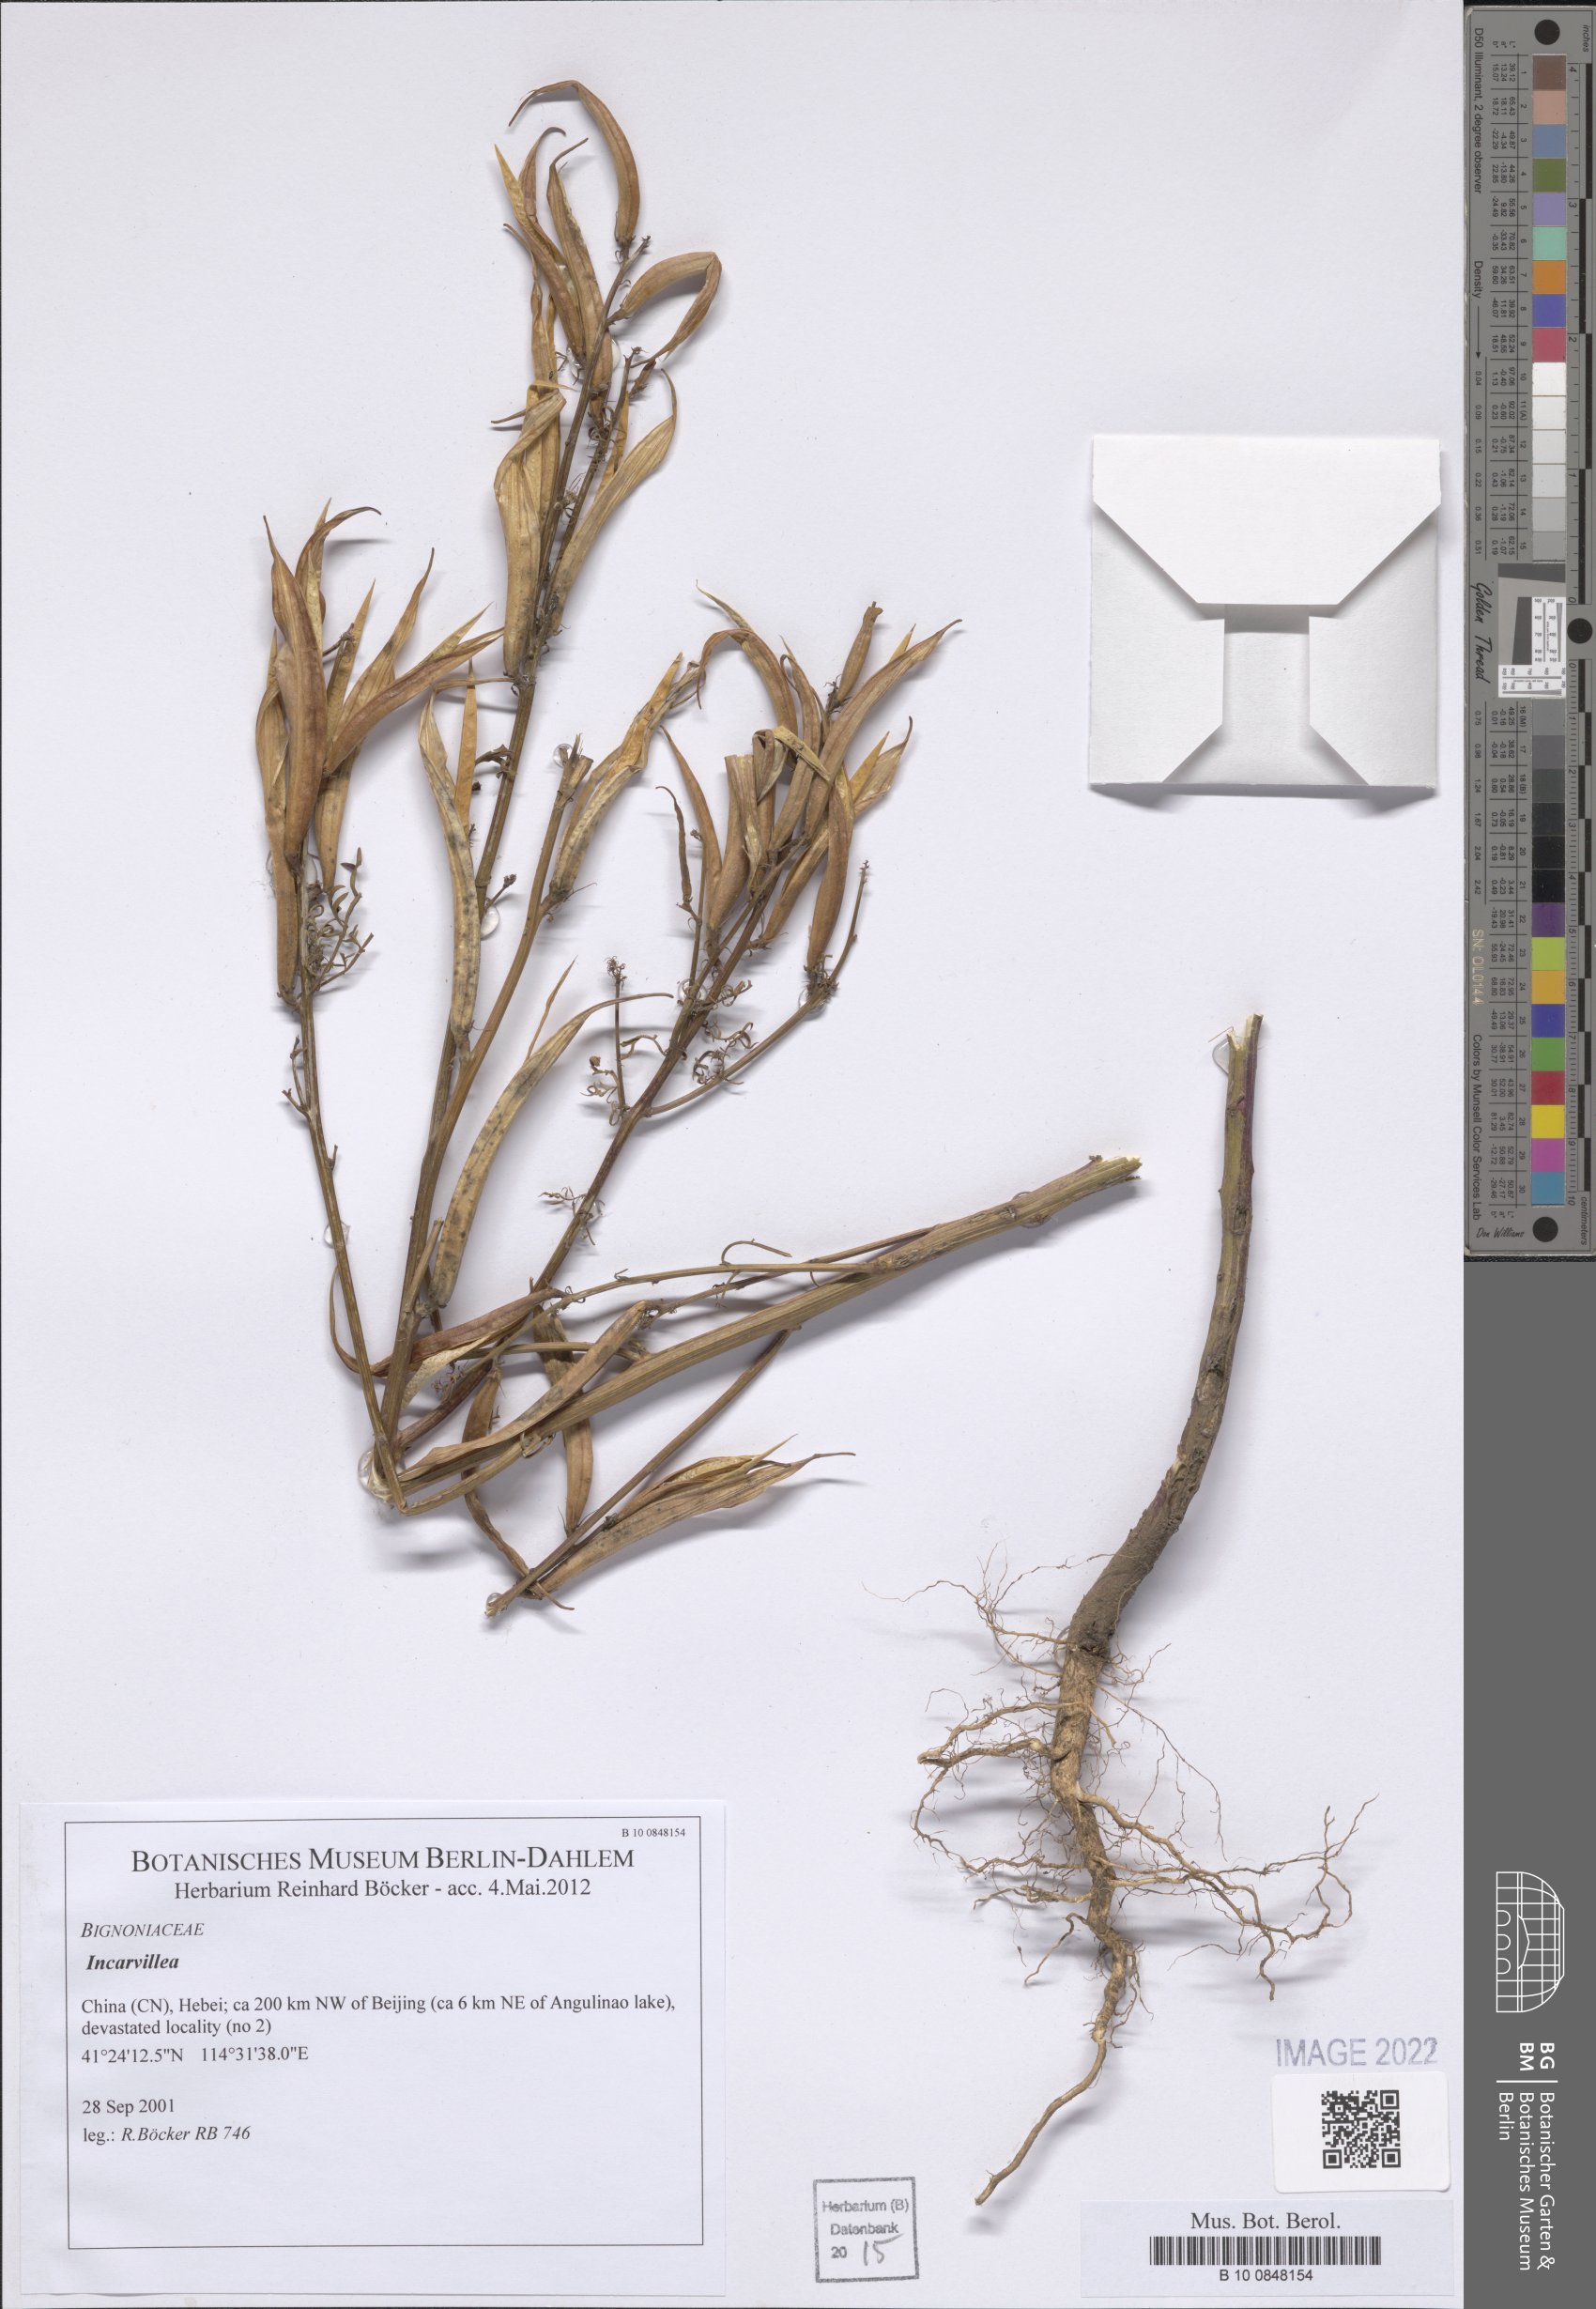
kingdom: Plantae
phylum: Tracheophyta
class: Magnoliopsida
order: Lamiales
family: Bignoniaceae
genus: Incarvillea
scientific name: Incarvillea
